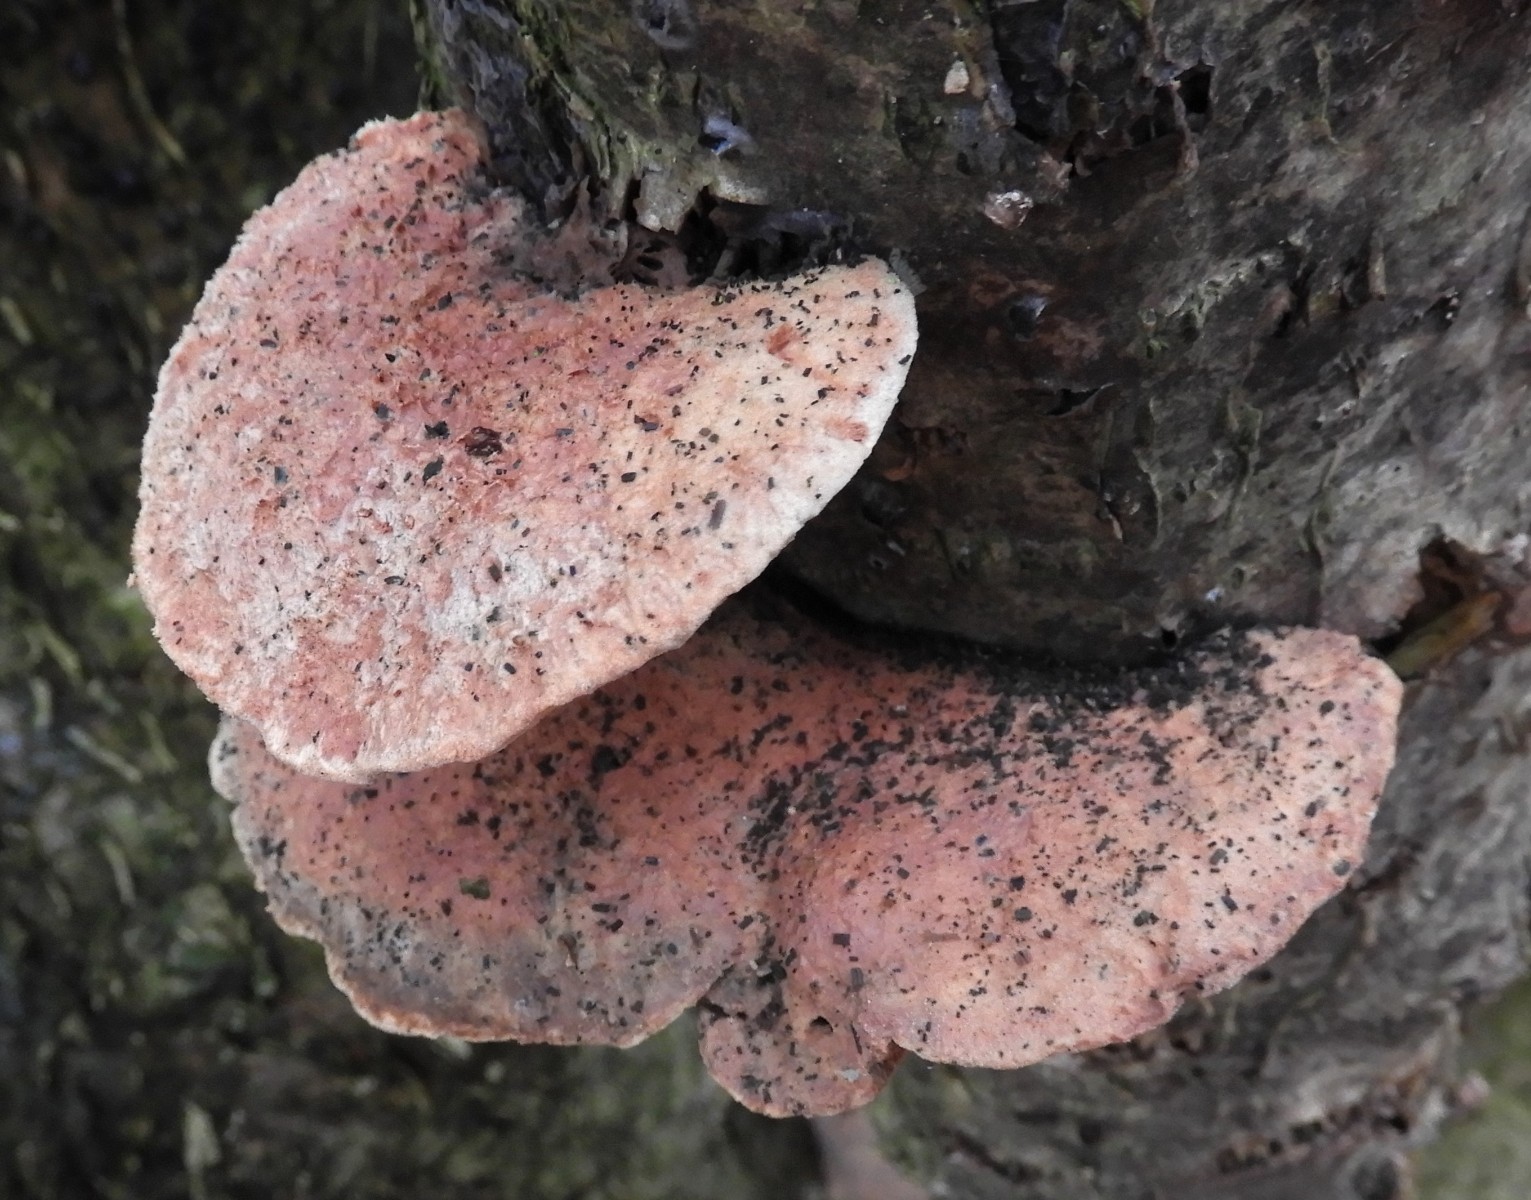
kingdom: Fungi
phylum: Basidiomycota
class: Agaricomycetes
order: Polyporales
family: Phanerochaetaceae
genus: Hapalopilus
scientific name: Hapalopilus rutilans
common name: rødlig okkerporesvamp
